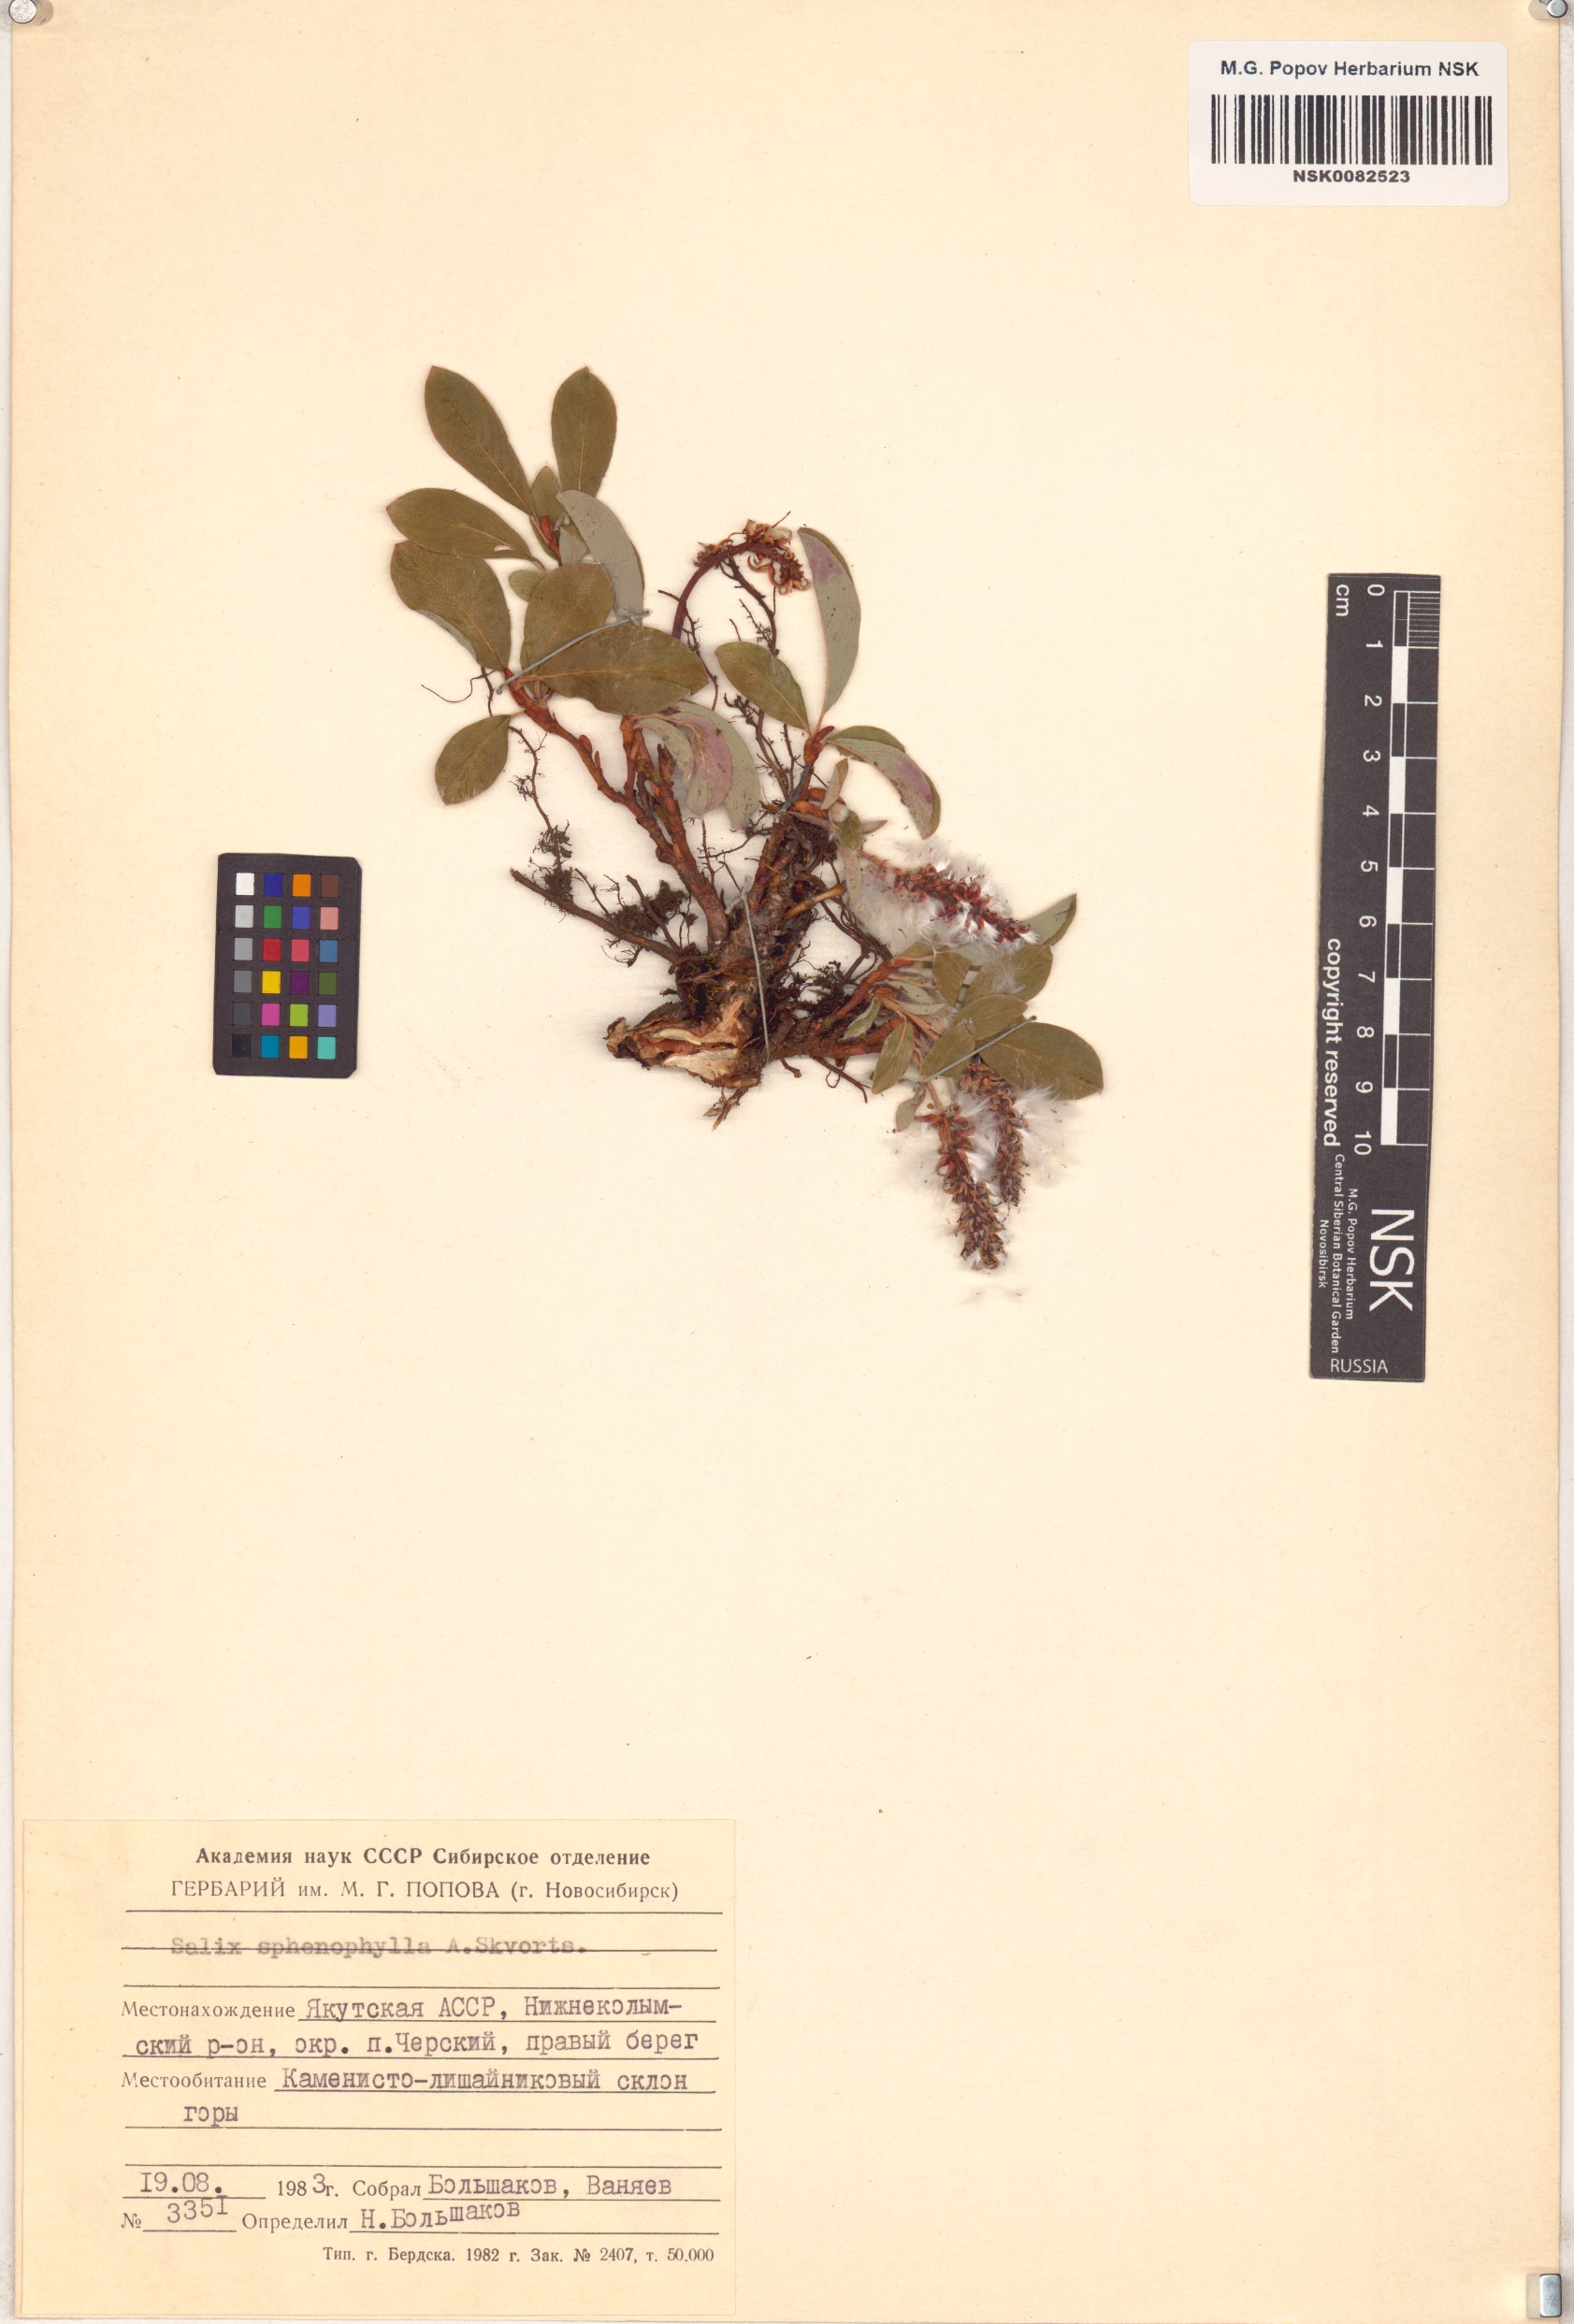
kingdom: Plantae
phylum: Tracheophyta
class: Magnoliopsida
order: Malpighiales
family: Salicaceae
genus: Salix
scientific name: Salix sphenophylla
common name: Wedge-leaved willow
